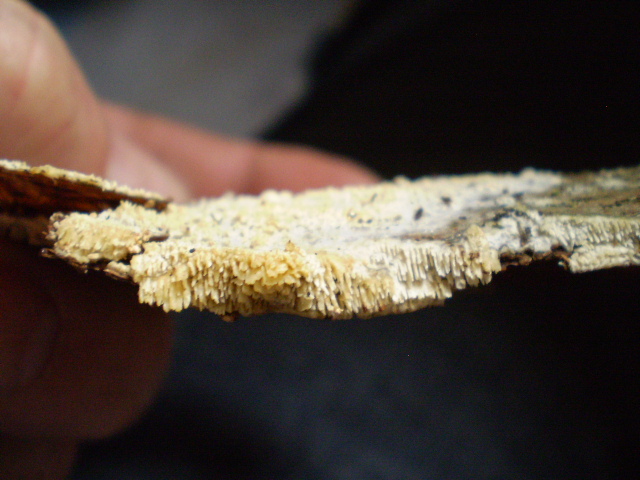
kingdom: Fungi
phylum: Basidiomycota
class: Agaricomycetes
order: Hymenochaetales
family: Schizoporaceae
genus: Schizopora
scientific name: Schizopora paradoxa
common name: hvid tandsvamp
